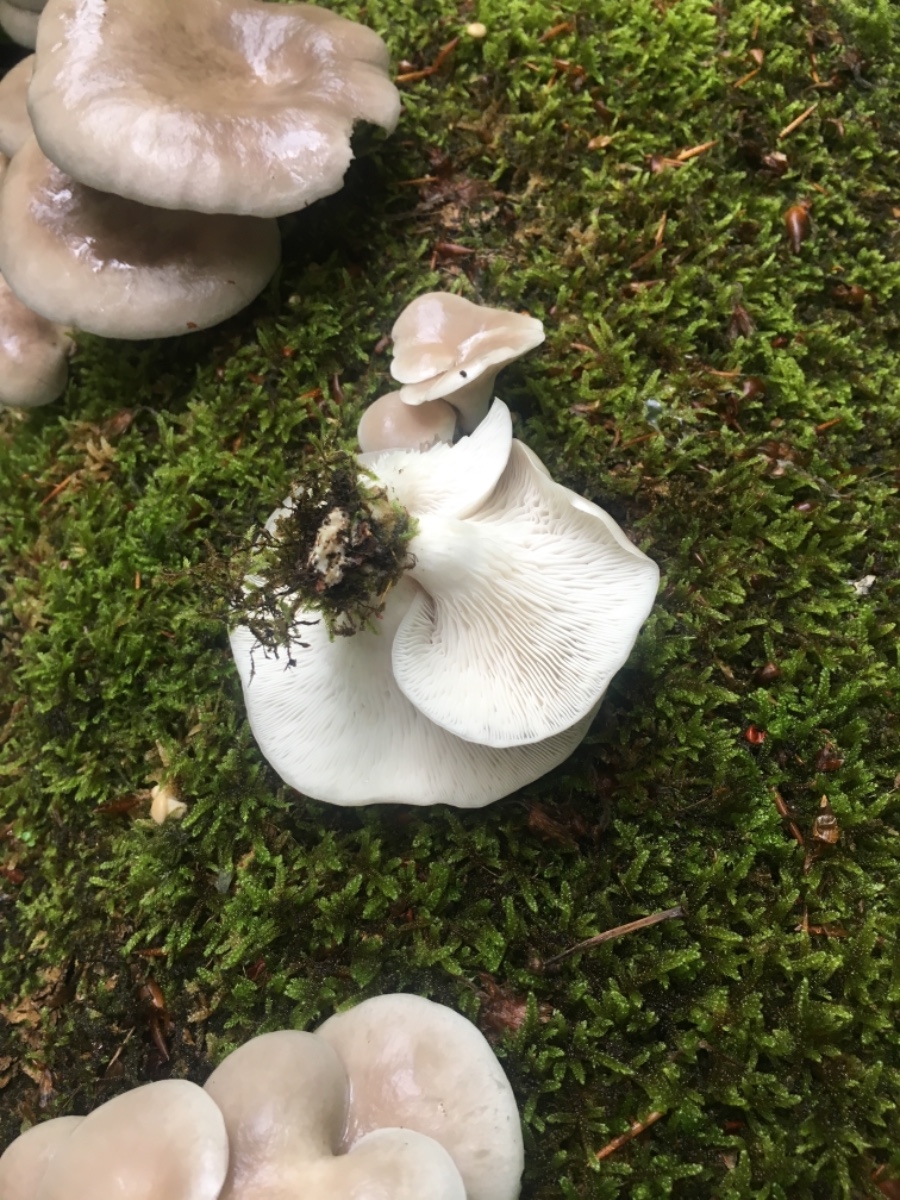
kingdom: Fungi
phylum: Basidiomycota
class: Agaricomycetes
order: Agaricales
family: Pleurotaceae
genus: Pleurotus
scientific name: Pleurotus pulmonarius
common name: sommer-østershat
